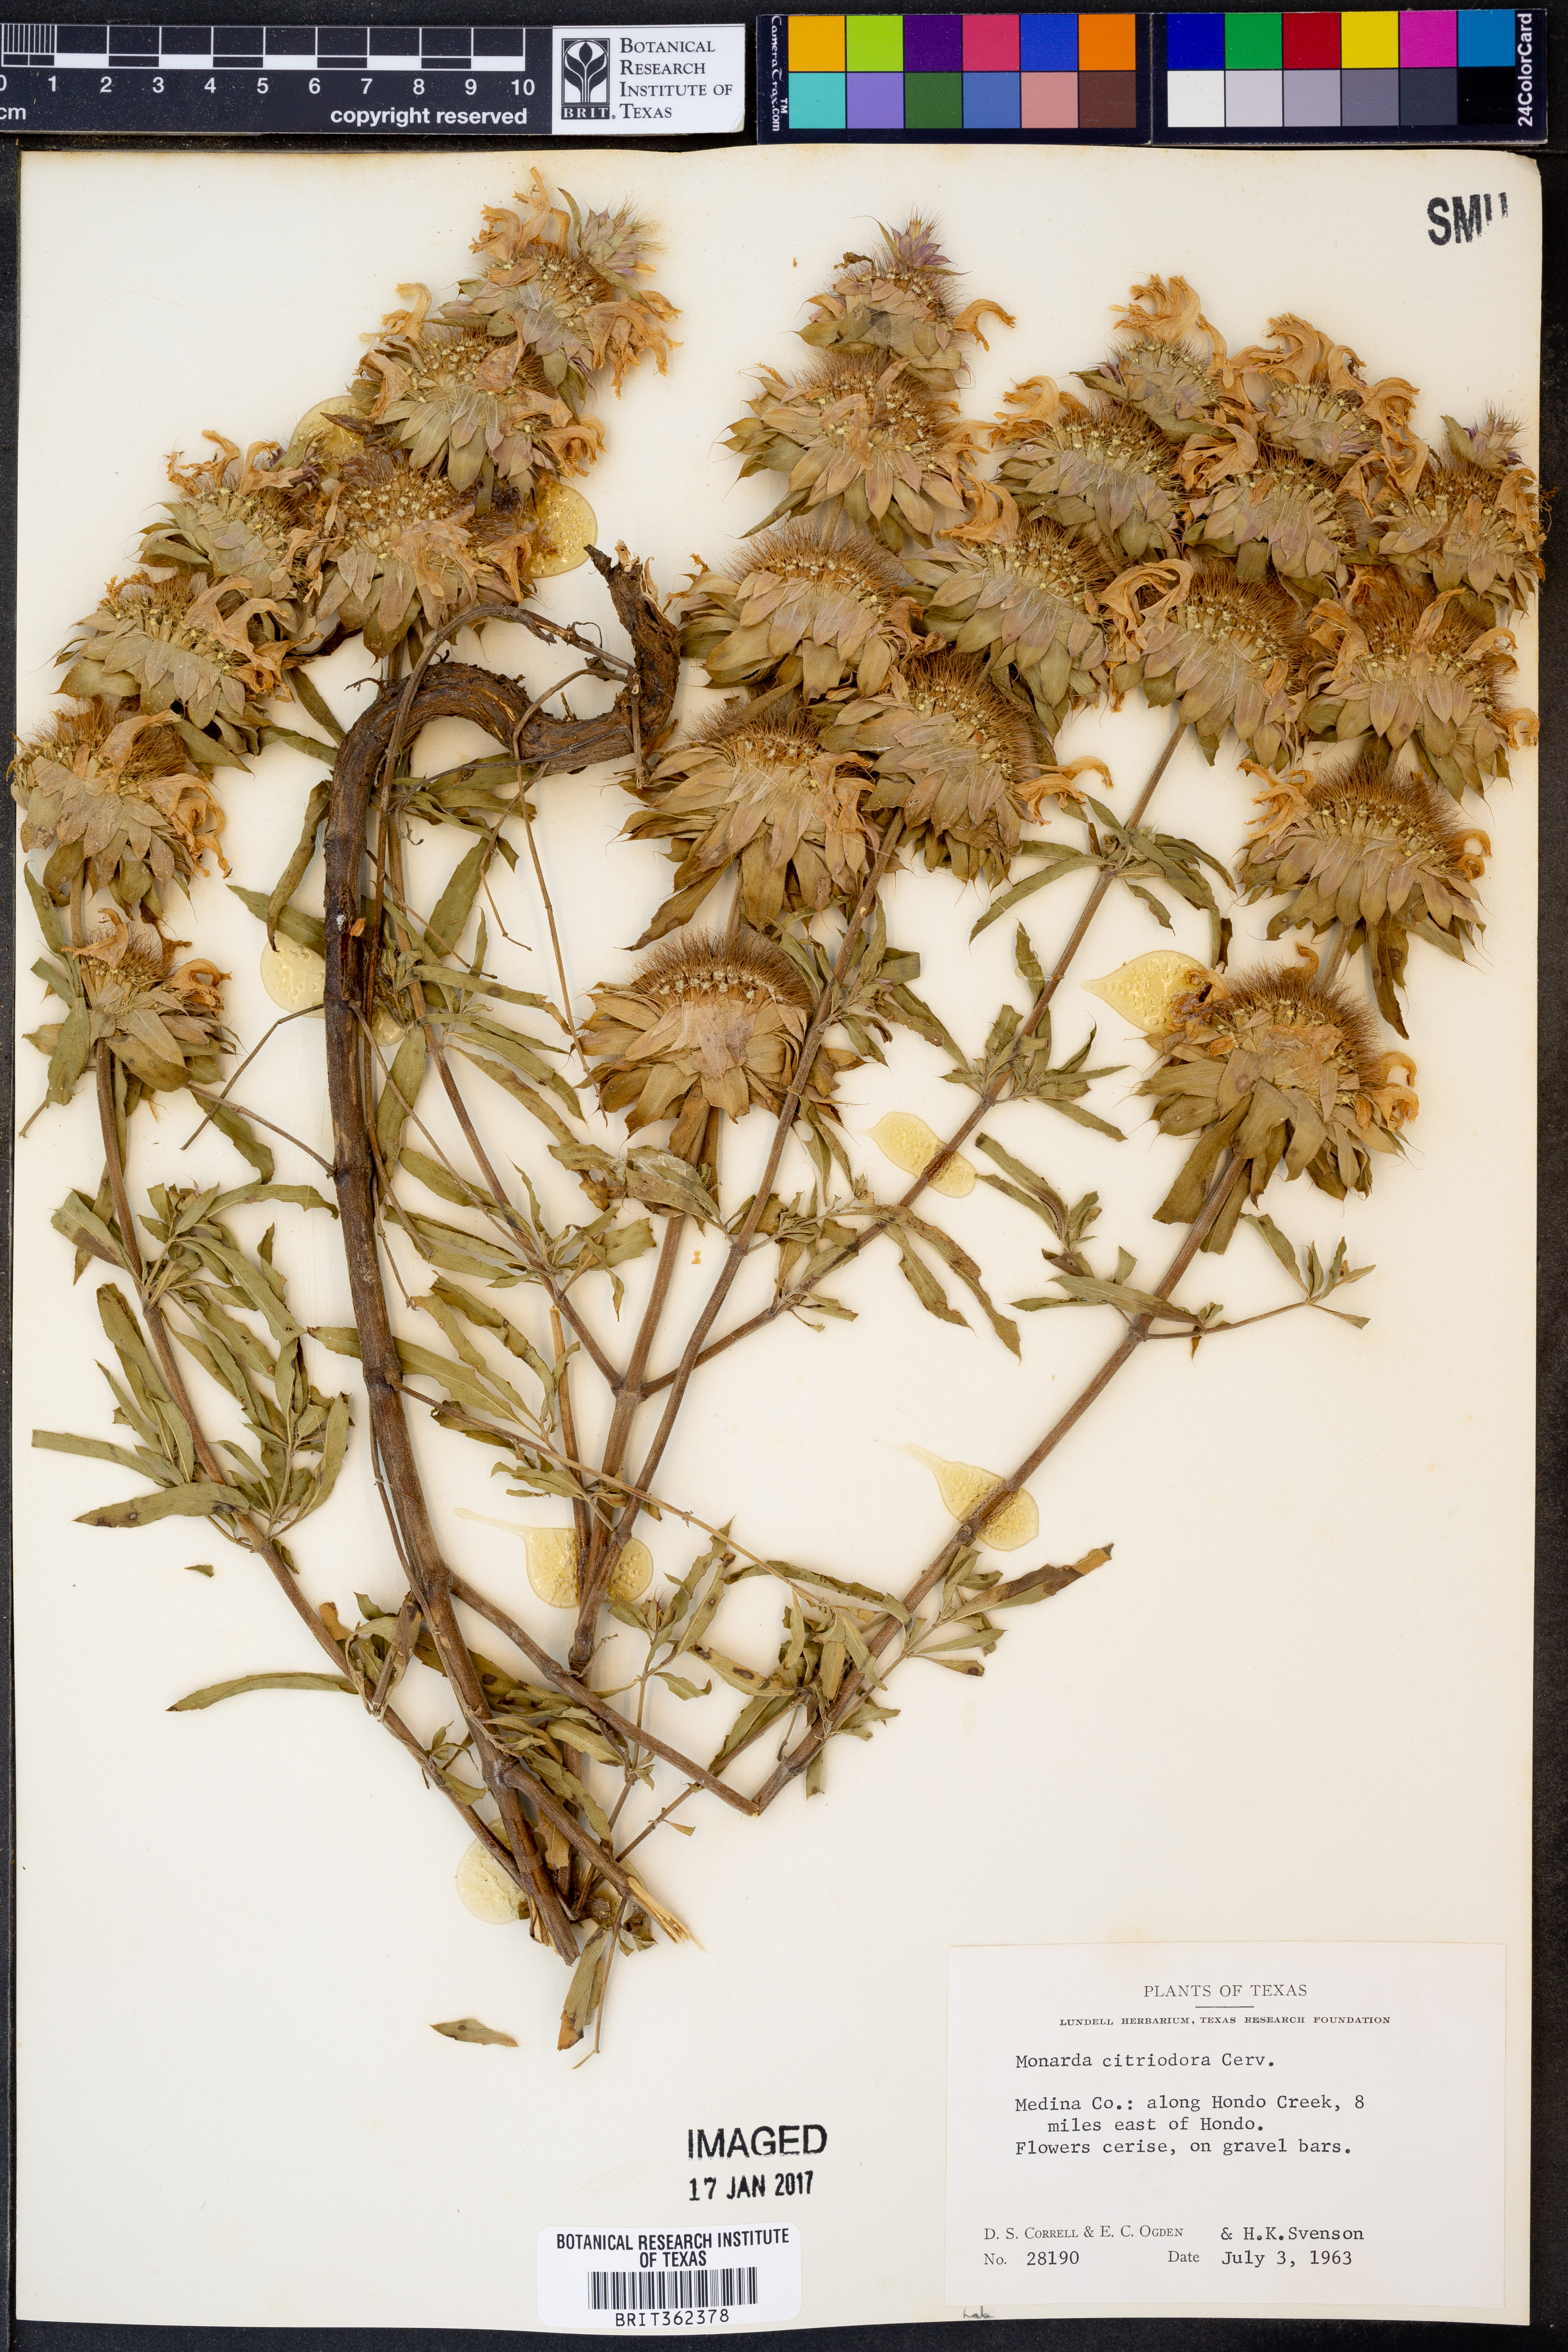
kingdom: Plantae
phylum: Tracheophyta
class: Magnoliopsida
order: Lamiales
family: Lamiaceae
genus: Monarda
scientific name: Monarda citriodora
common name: Lemon beebalm
